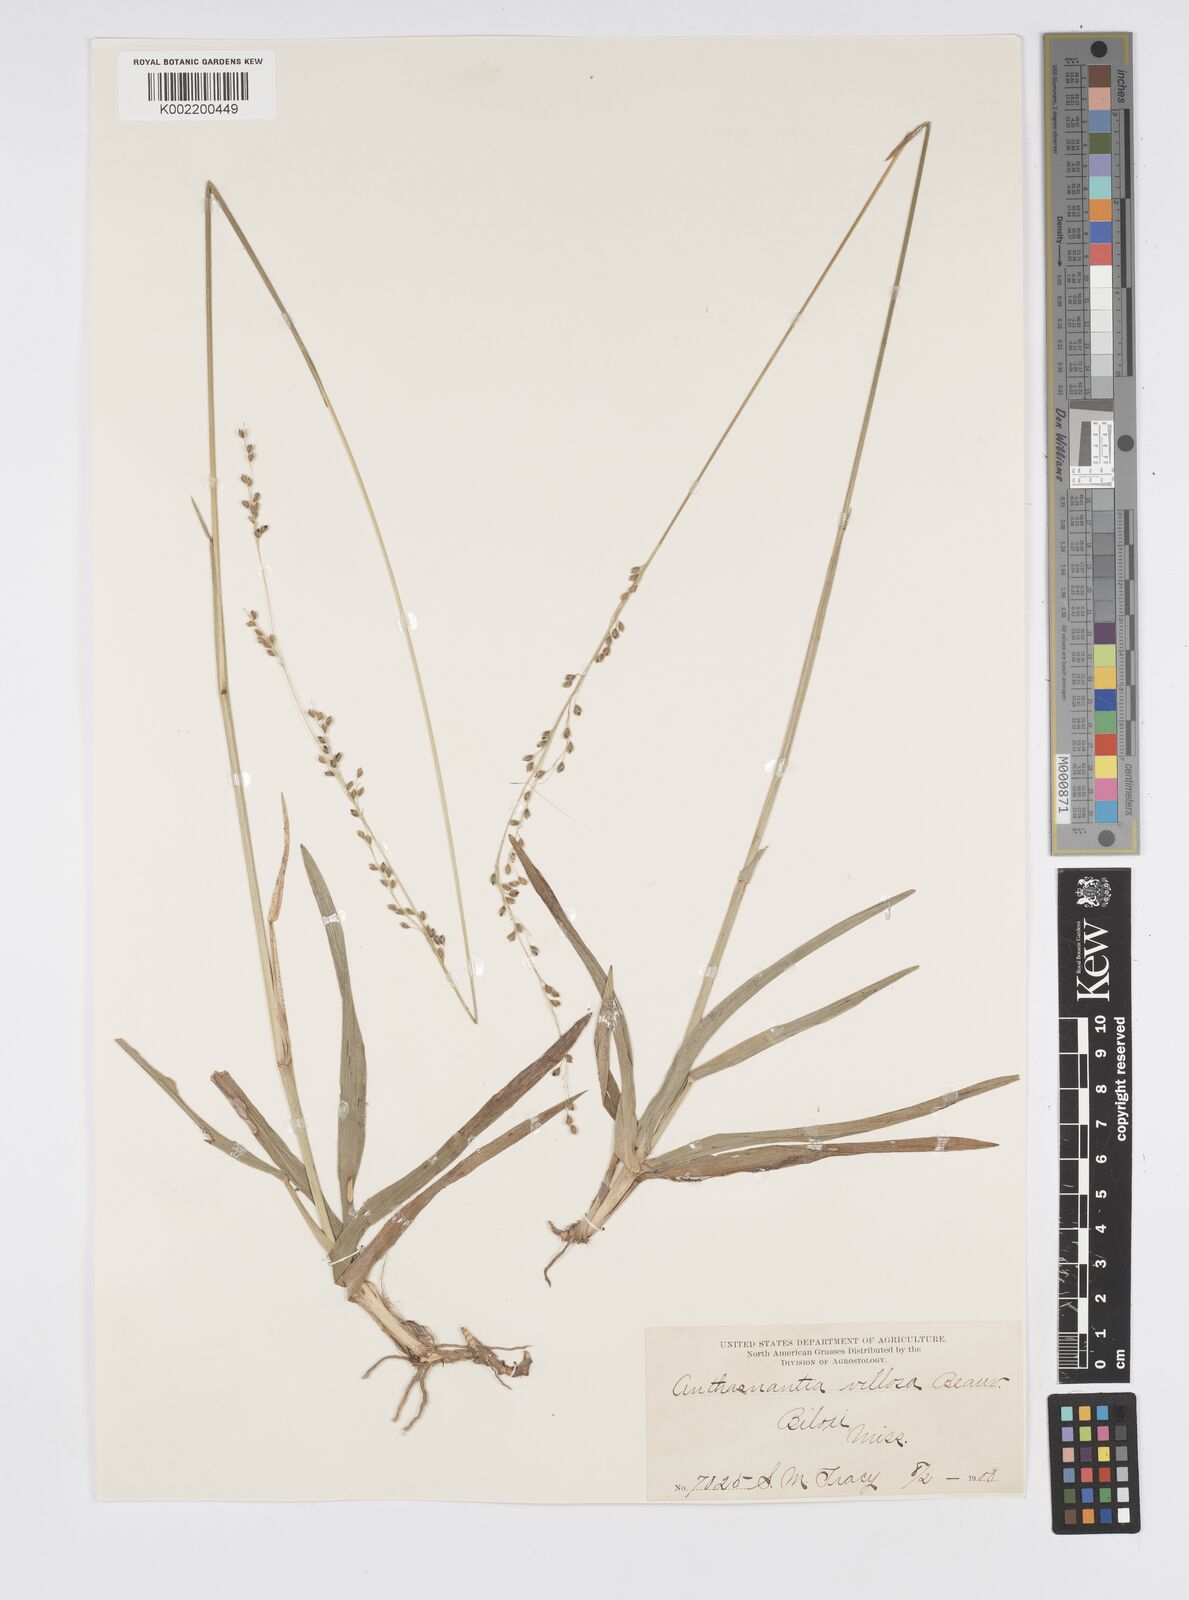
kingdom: Plantae
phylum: Tracheophyta
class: Liliopsida
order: Poales
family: Poaceae
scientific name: Poaceae
